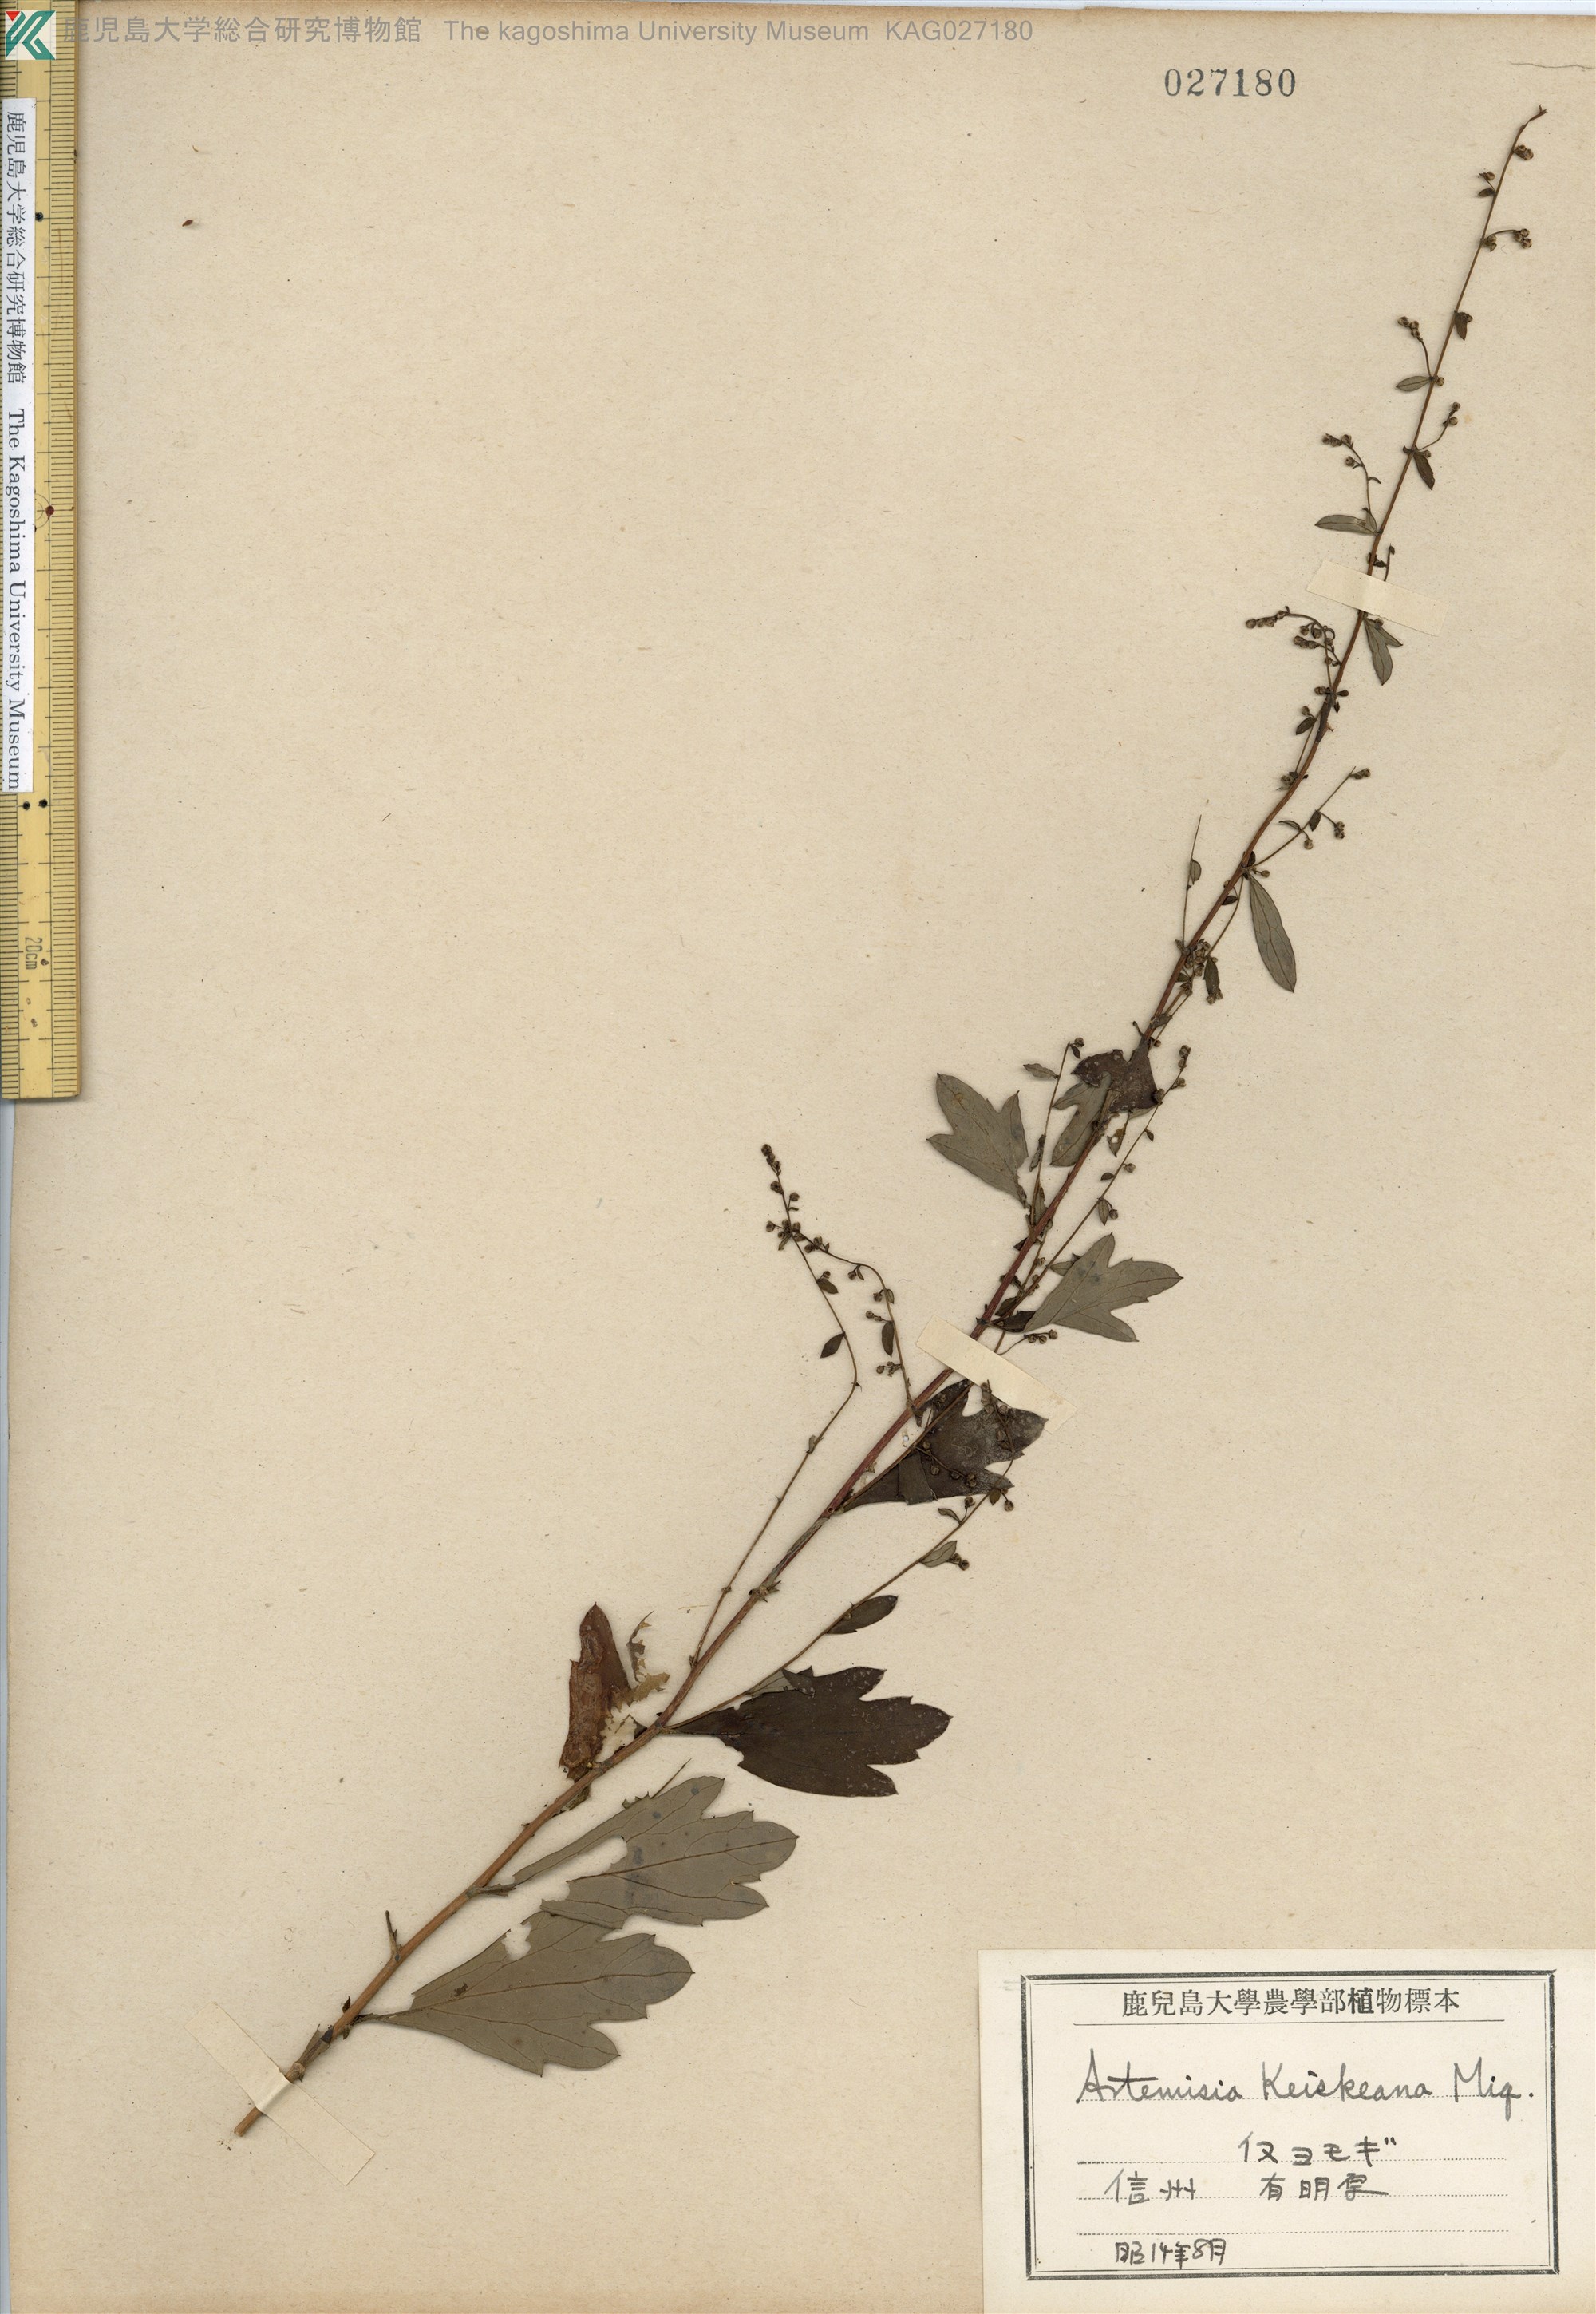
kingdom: Plantae
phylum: Tracheophyta
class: Magnoliopsida
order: Asterales
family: Asteraceae
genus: Artemisia
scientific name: Artemisia keiskeana
